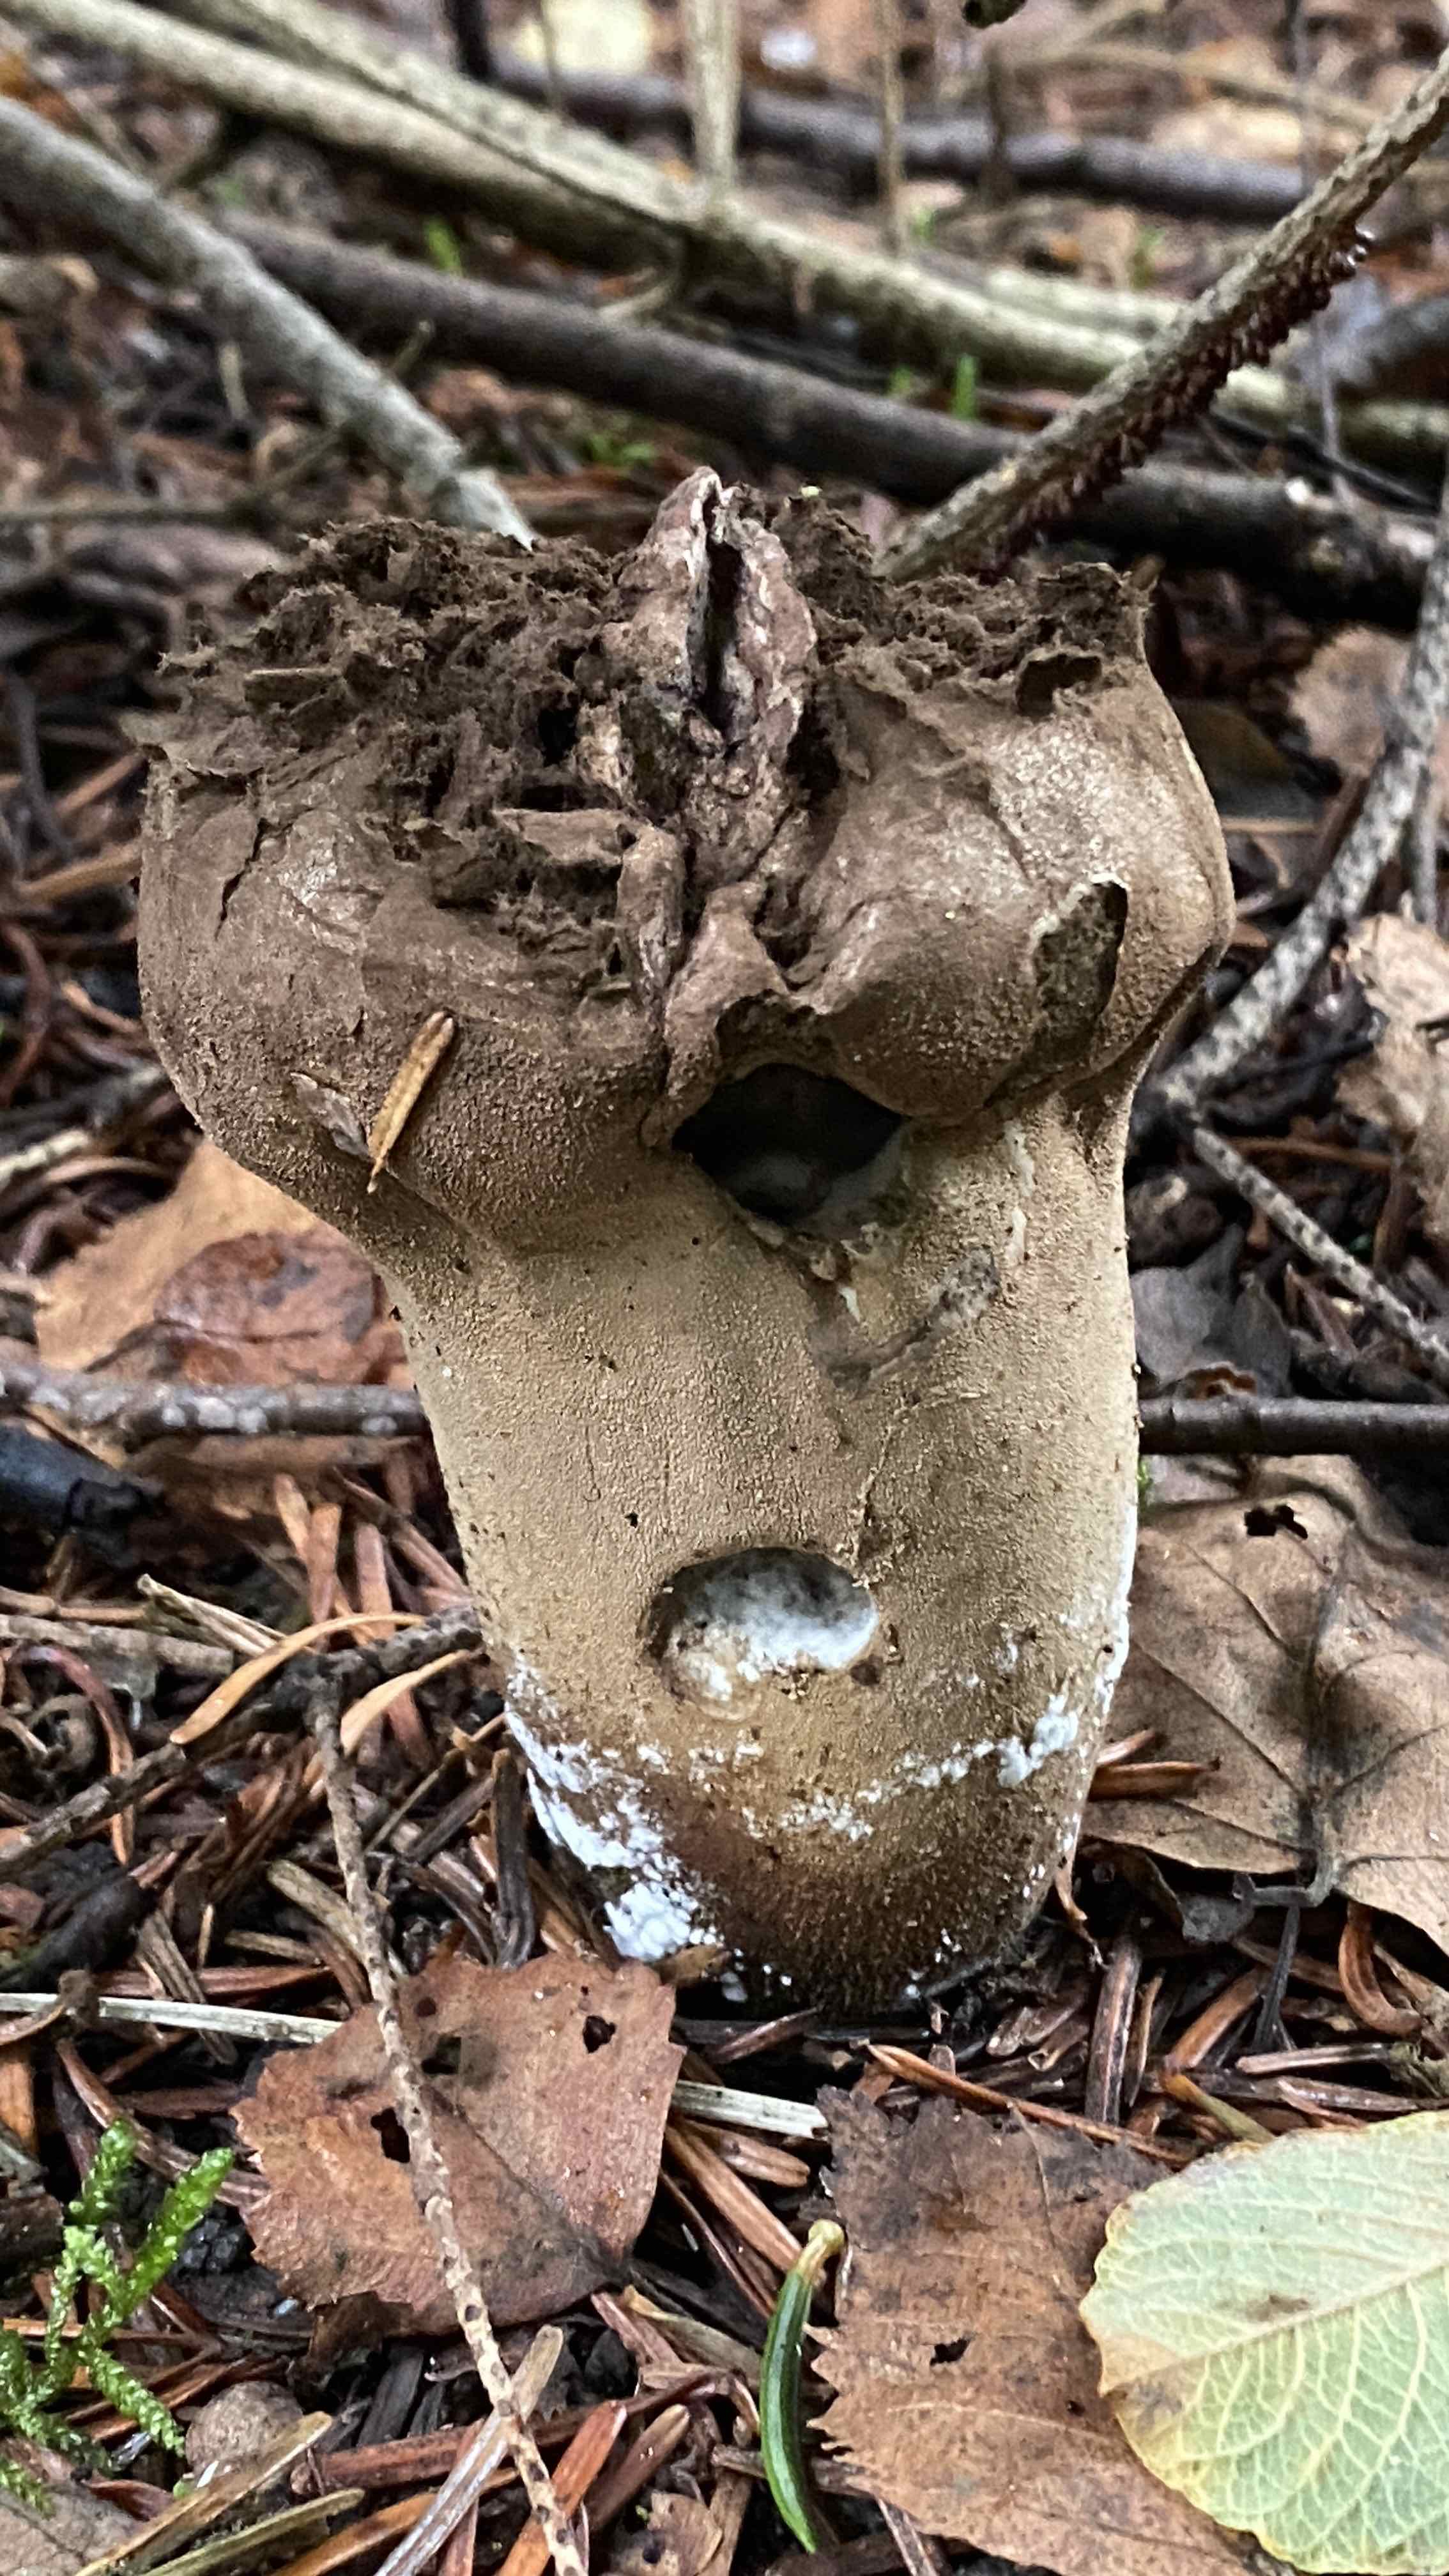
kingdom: Fungi
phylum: Basidiomycota
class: Agaricomycetes
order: Agaricales
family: Lycoperdaceae
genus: Lycoperdon
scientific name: Lycoperdon excipuliforme
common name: højstokket støvbold
